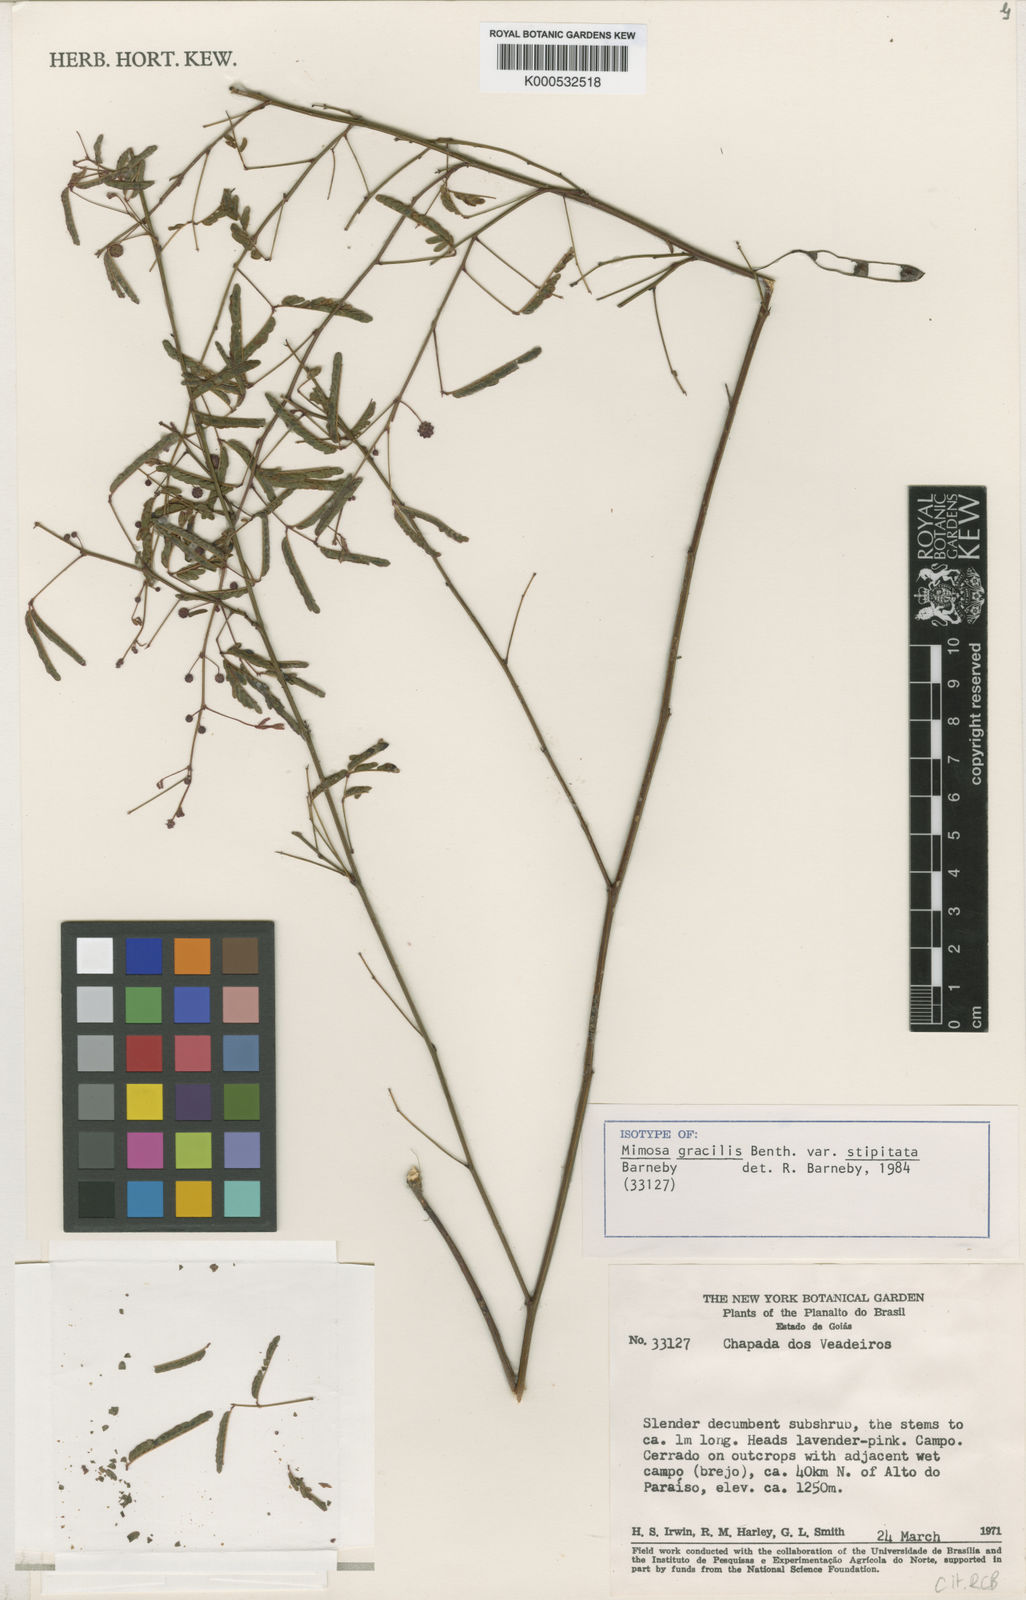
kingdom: Plantae
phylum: Tracheophyta
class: Magnoliopsida
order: Fabales
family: Fabaceae
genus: Mimosa
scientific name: Mimosa gracilis
